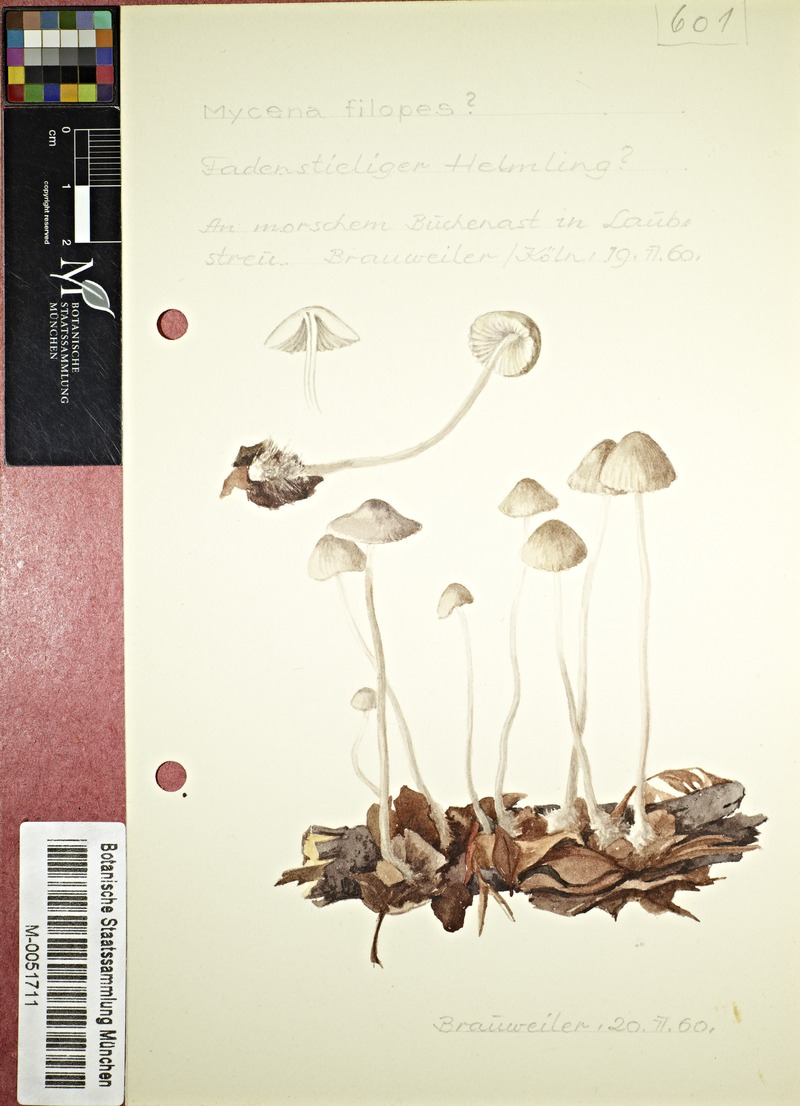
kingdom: Fungi
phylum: Basidiomycota
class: Agaricomycetes
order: Agaricales
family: Mycenaceae
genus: Mycena
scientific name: Mycena filopes
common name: Iodine bonnet
